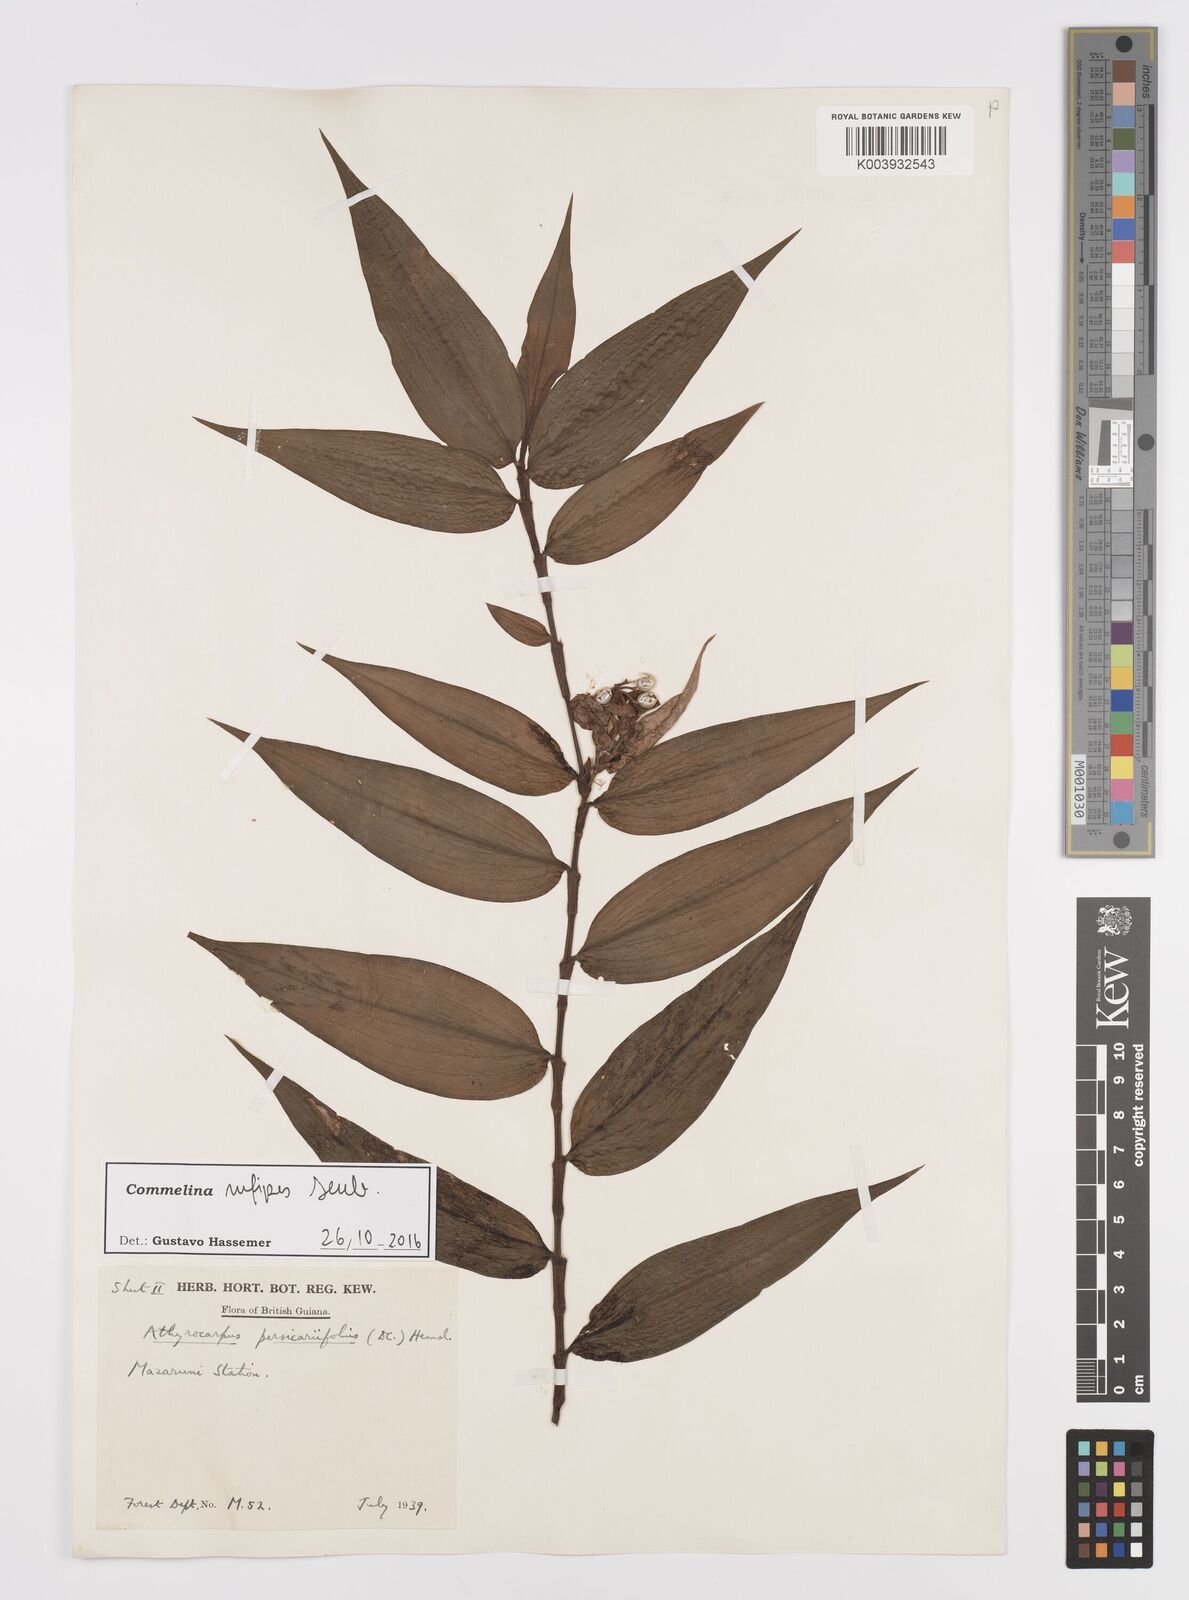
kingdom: Plantae
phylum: Tracheophyta
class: Liliopsida
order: Commelinales
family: Commelinaceae
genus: Commelina
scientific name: Commelina rufipes
